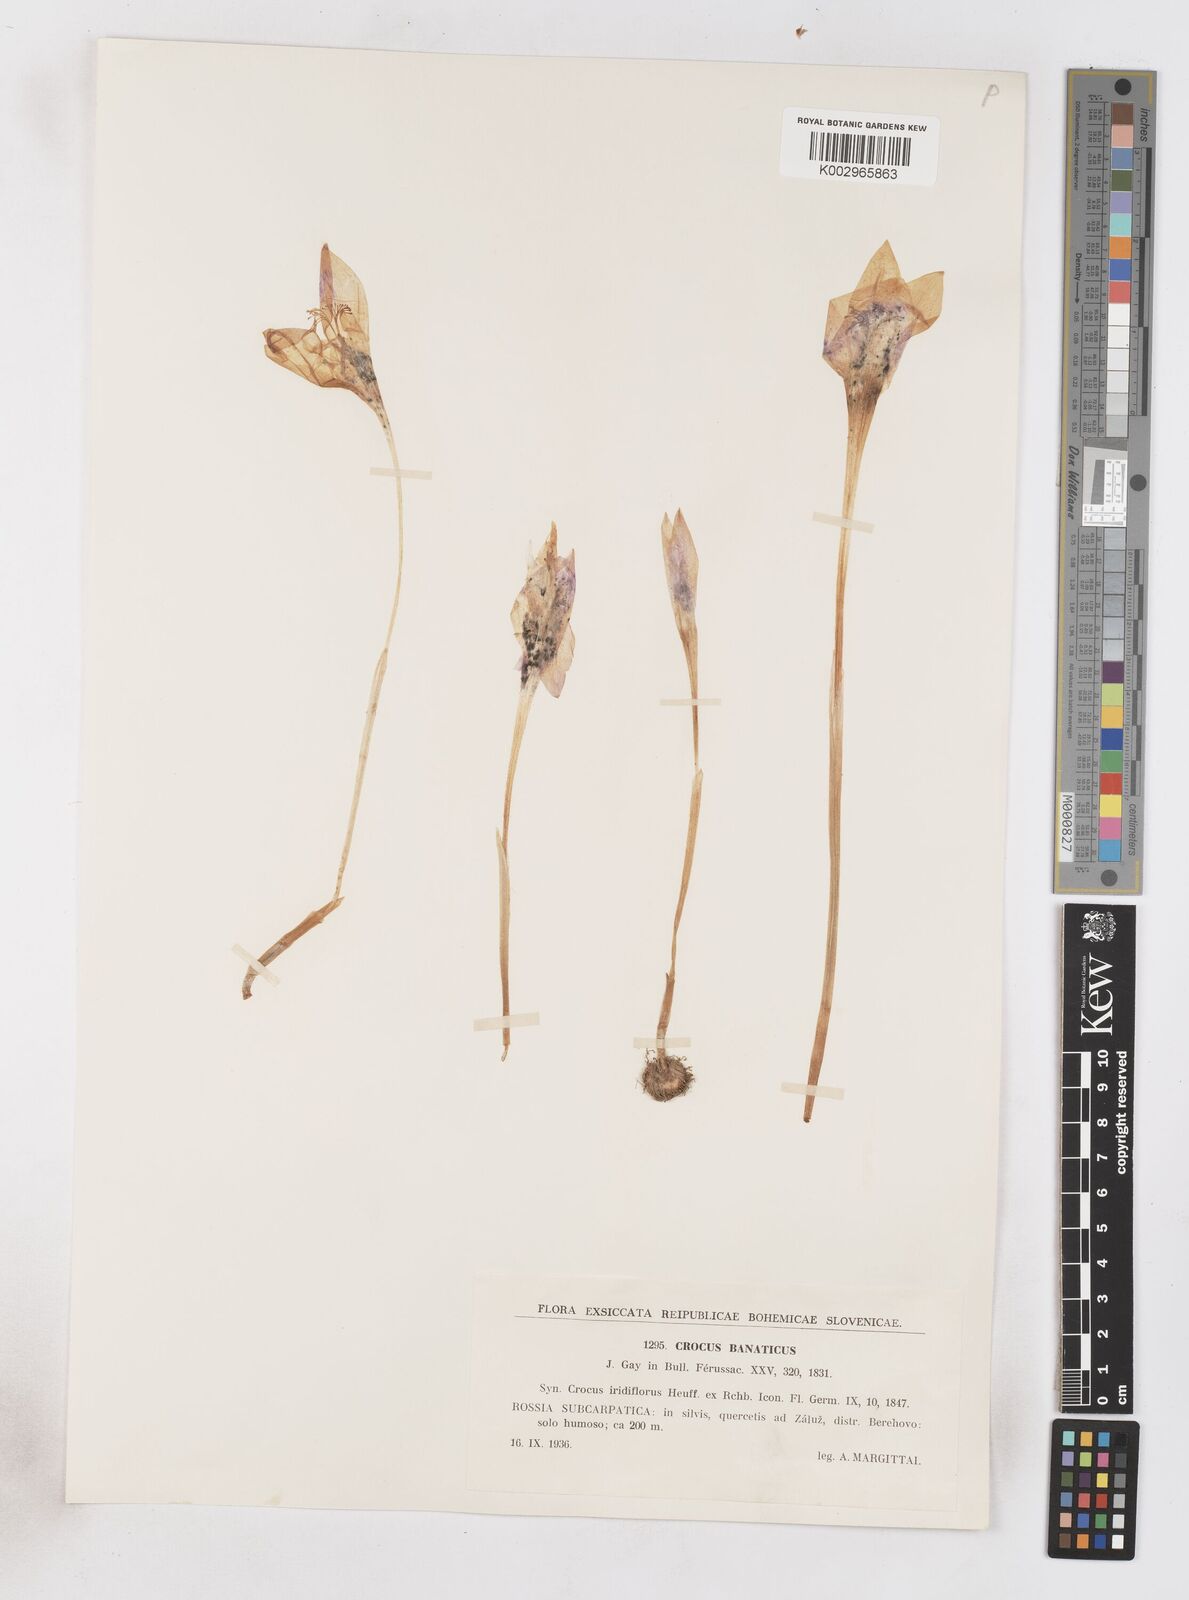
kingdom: Plantae
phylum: Tracheophyta
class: Liliopsida
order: Asparagales
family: Iridaceae
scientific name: Iridaceae
